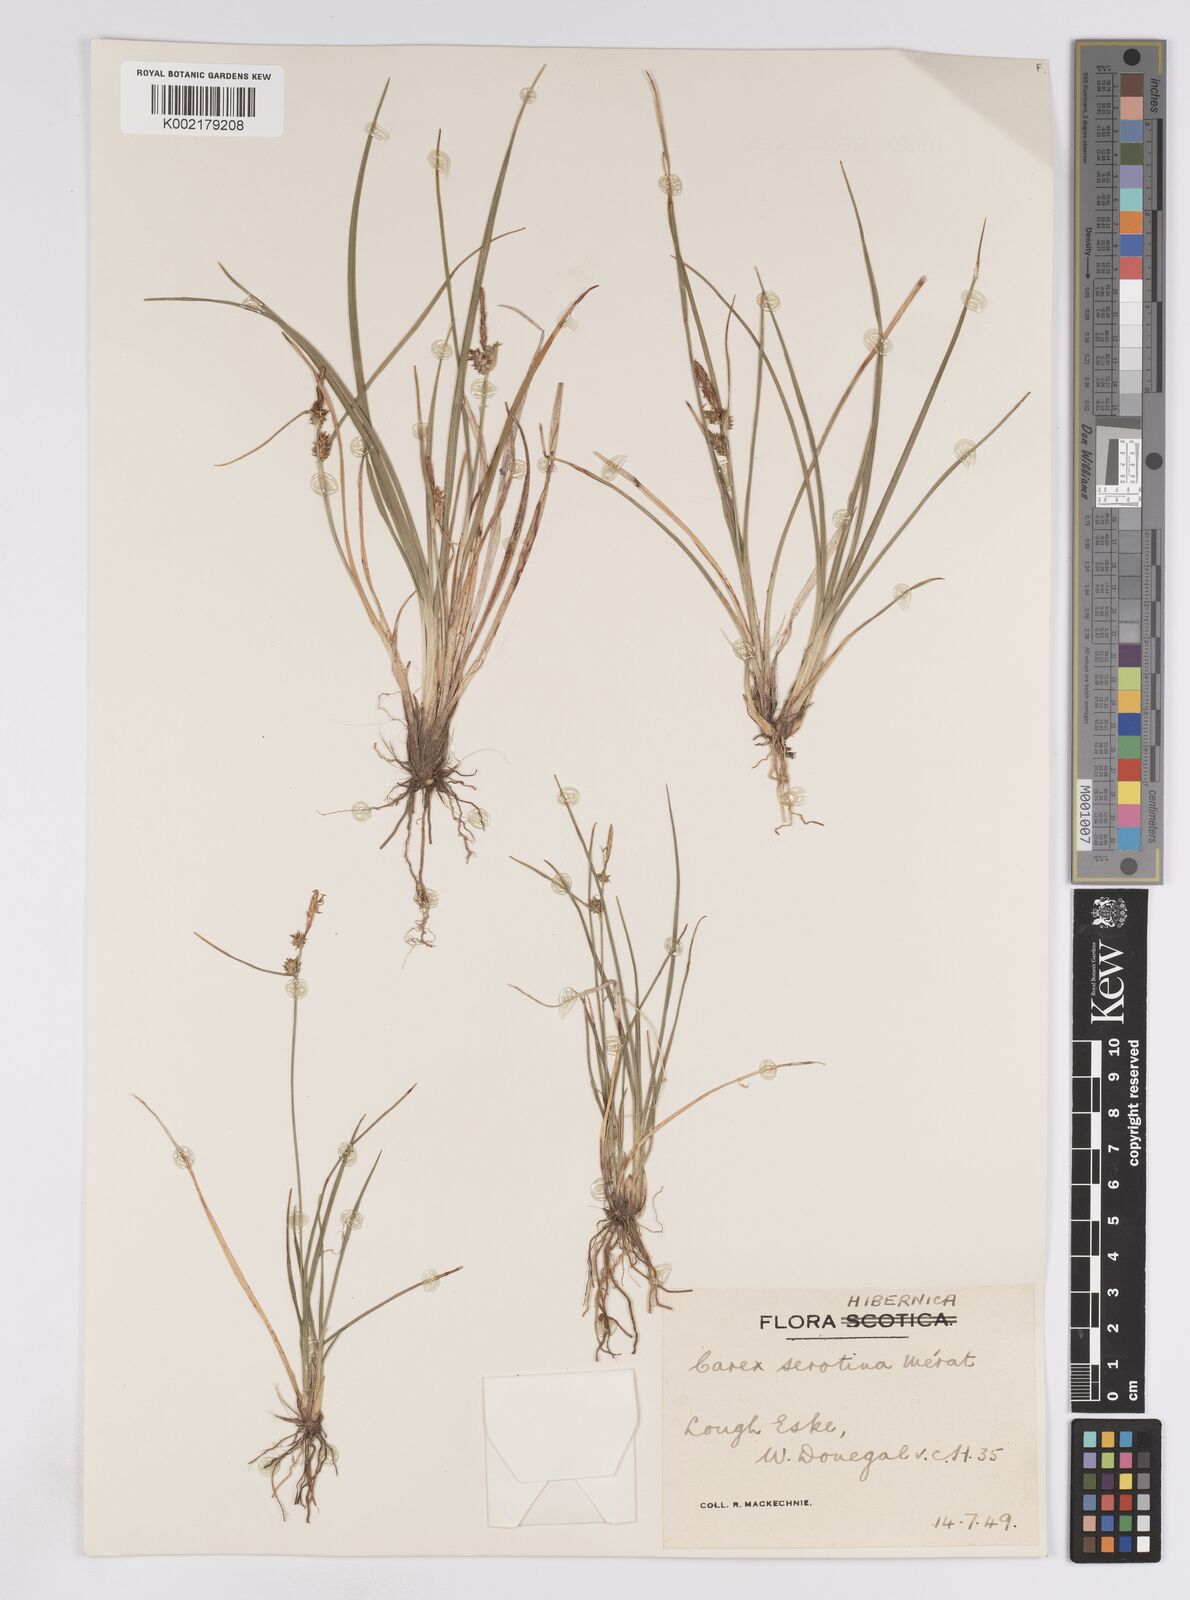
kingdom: Plantae
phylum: Tracheophyta
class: Liliopsida
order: Poales
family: Cyperaceae
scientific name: Cyperaceae
